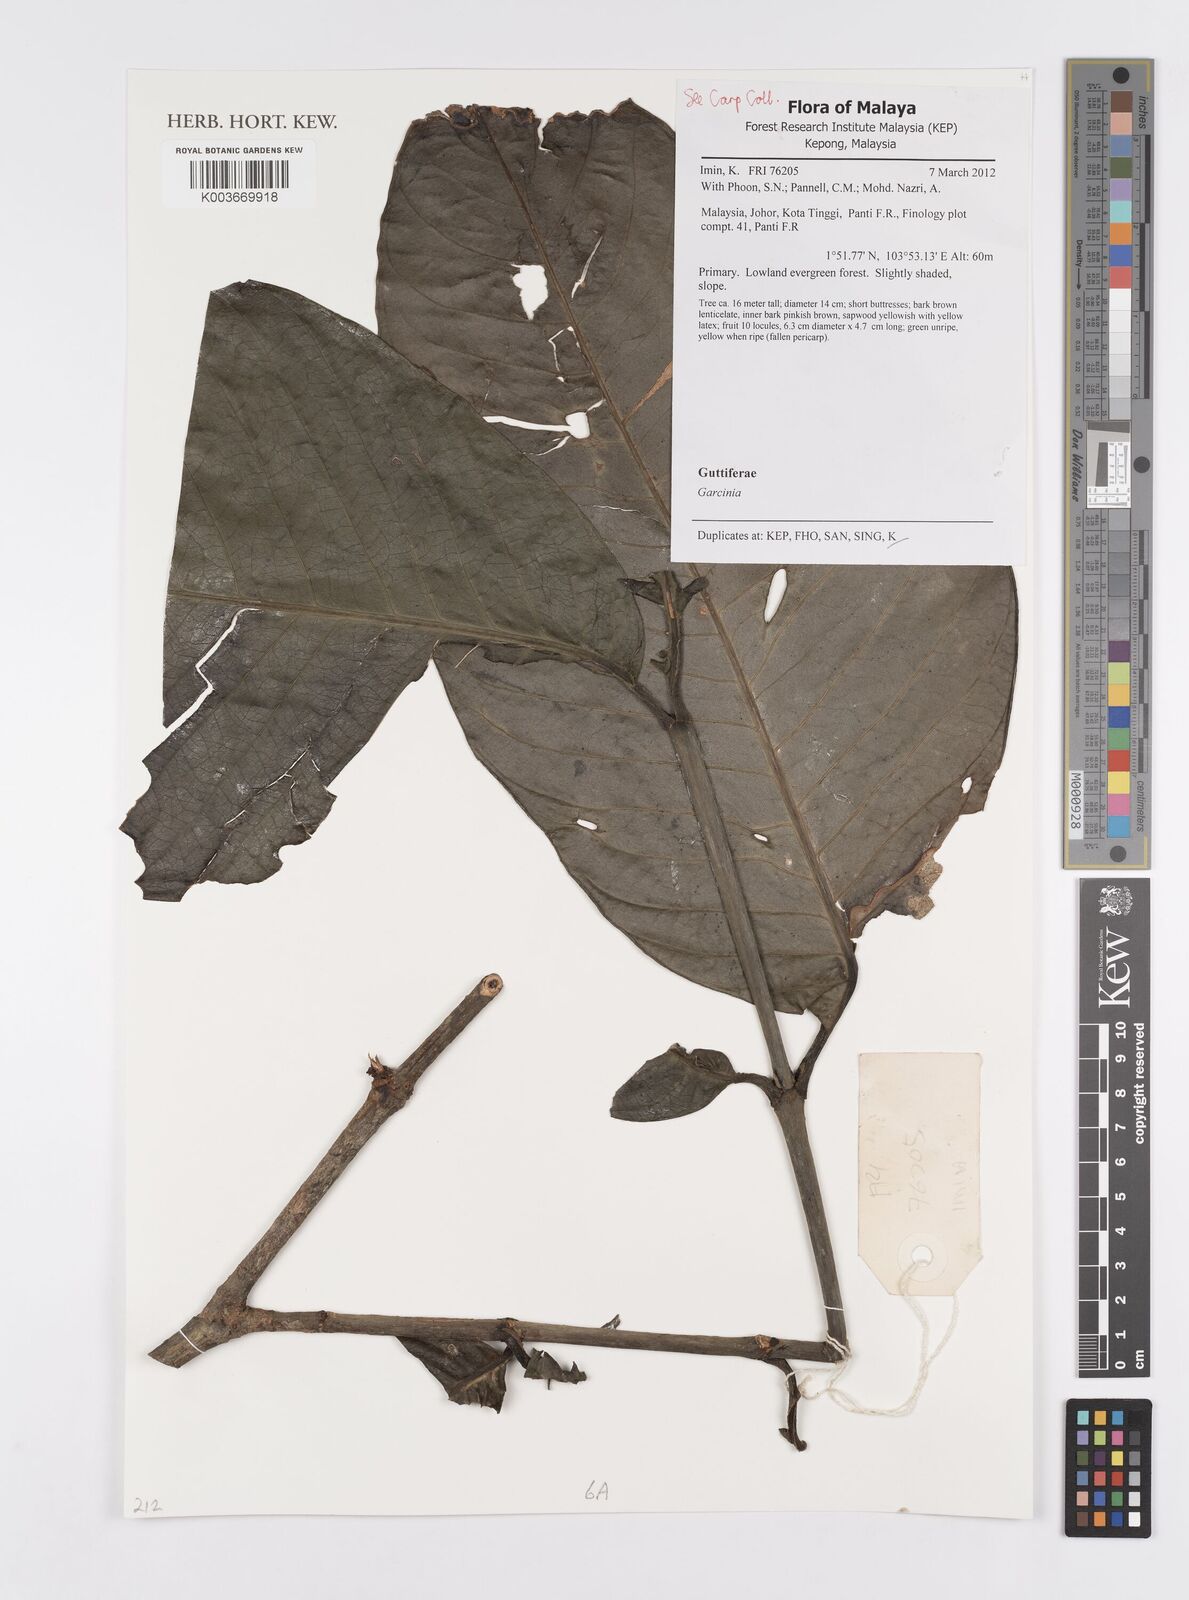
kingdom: Plantae
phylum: Tracheophyta
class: Magnoliopsida
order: Malpighiales
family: Clusiaceae
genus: Garcinia
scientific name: Garcinia
